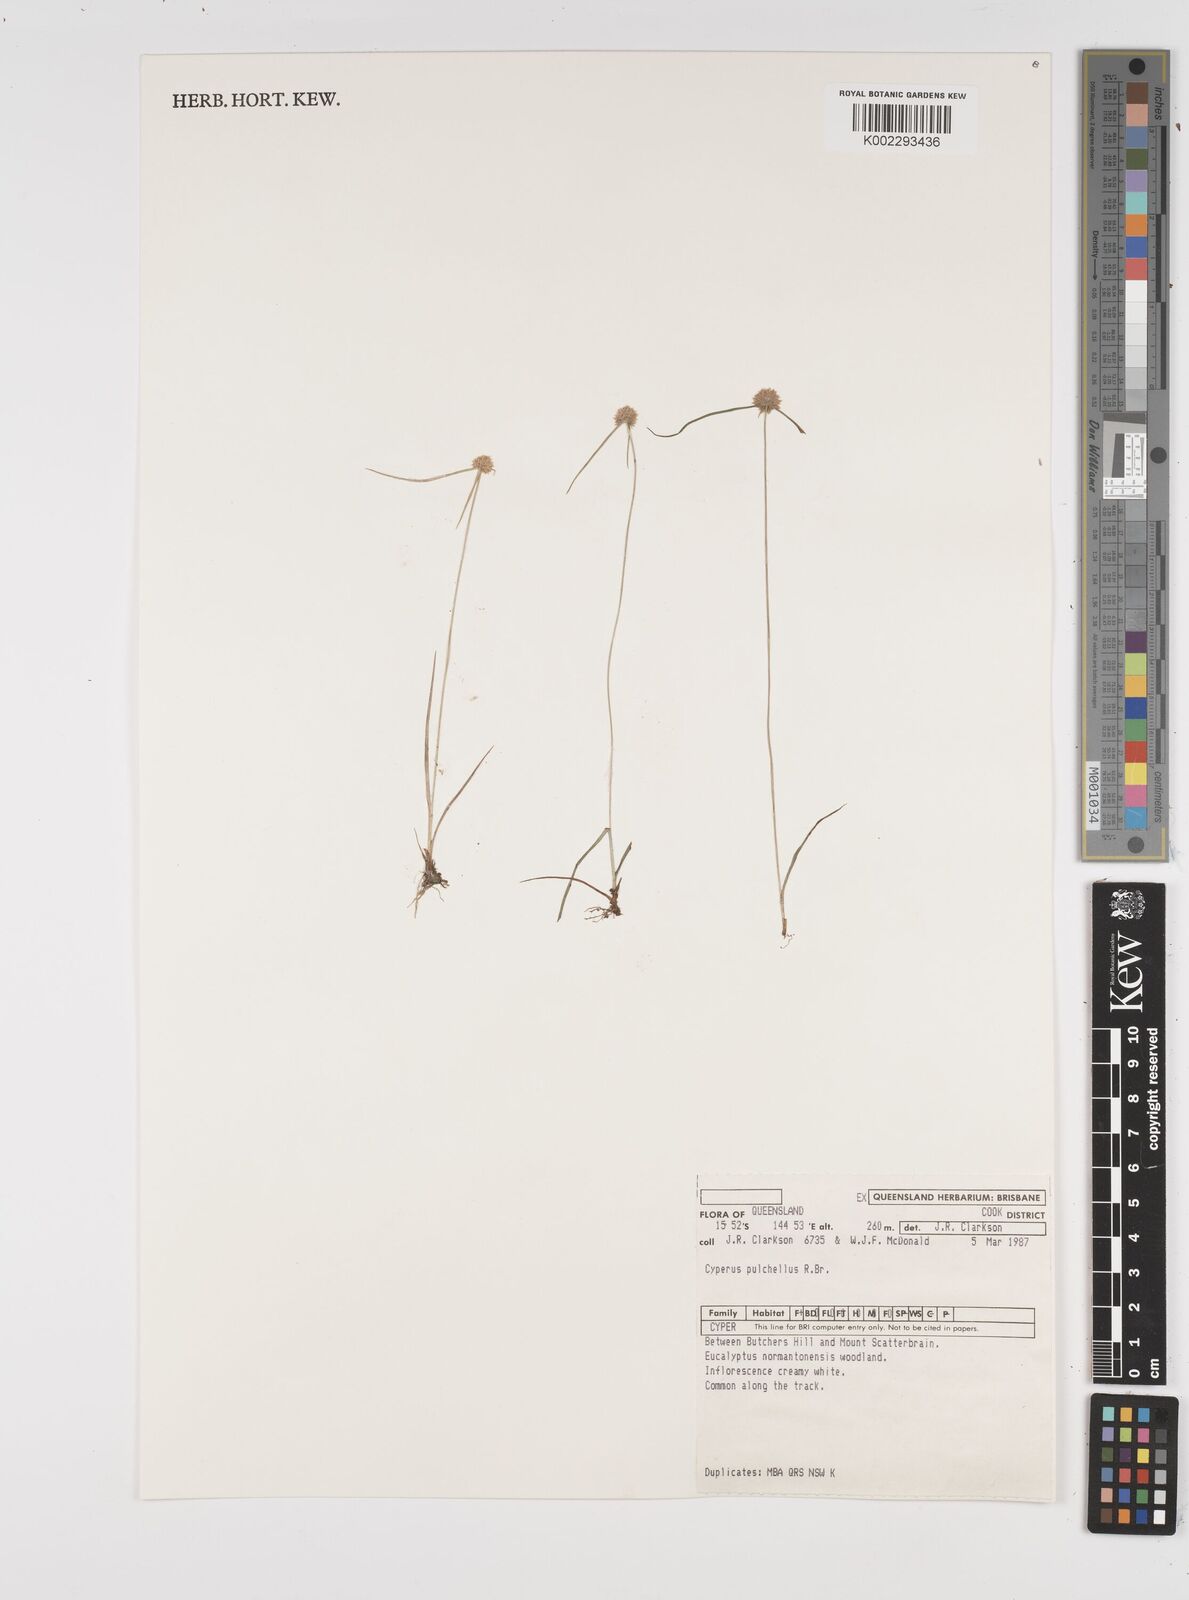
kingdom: Plantae
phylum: Tracheophyta
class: Liliopsida
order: Poales
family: Cyperaceae
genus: Cyperus
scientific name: Cyperus pulchellus
